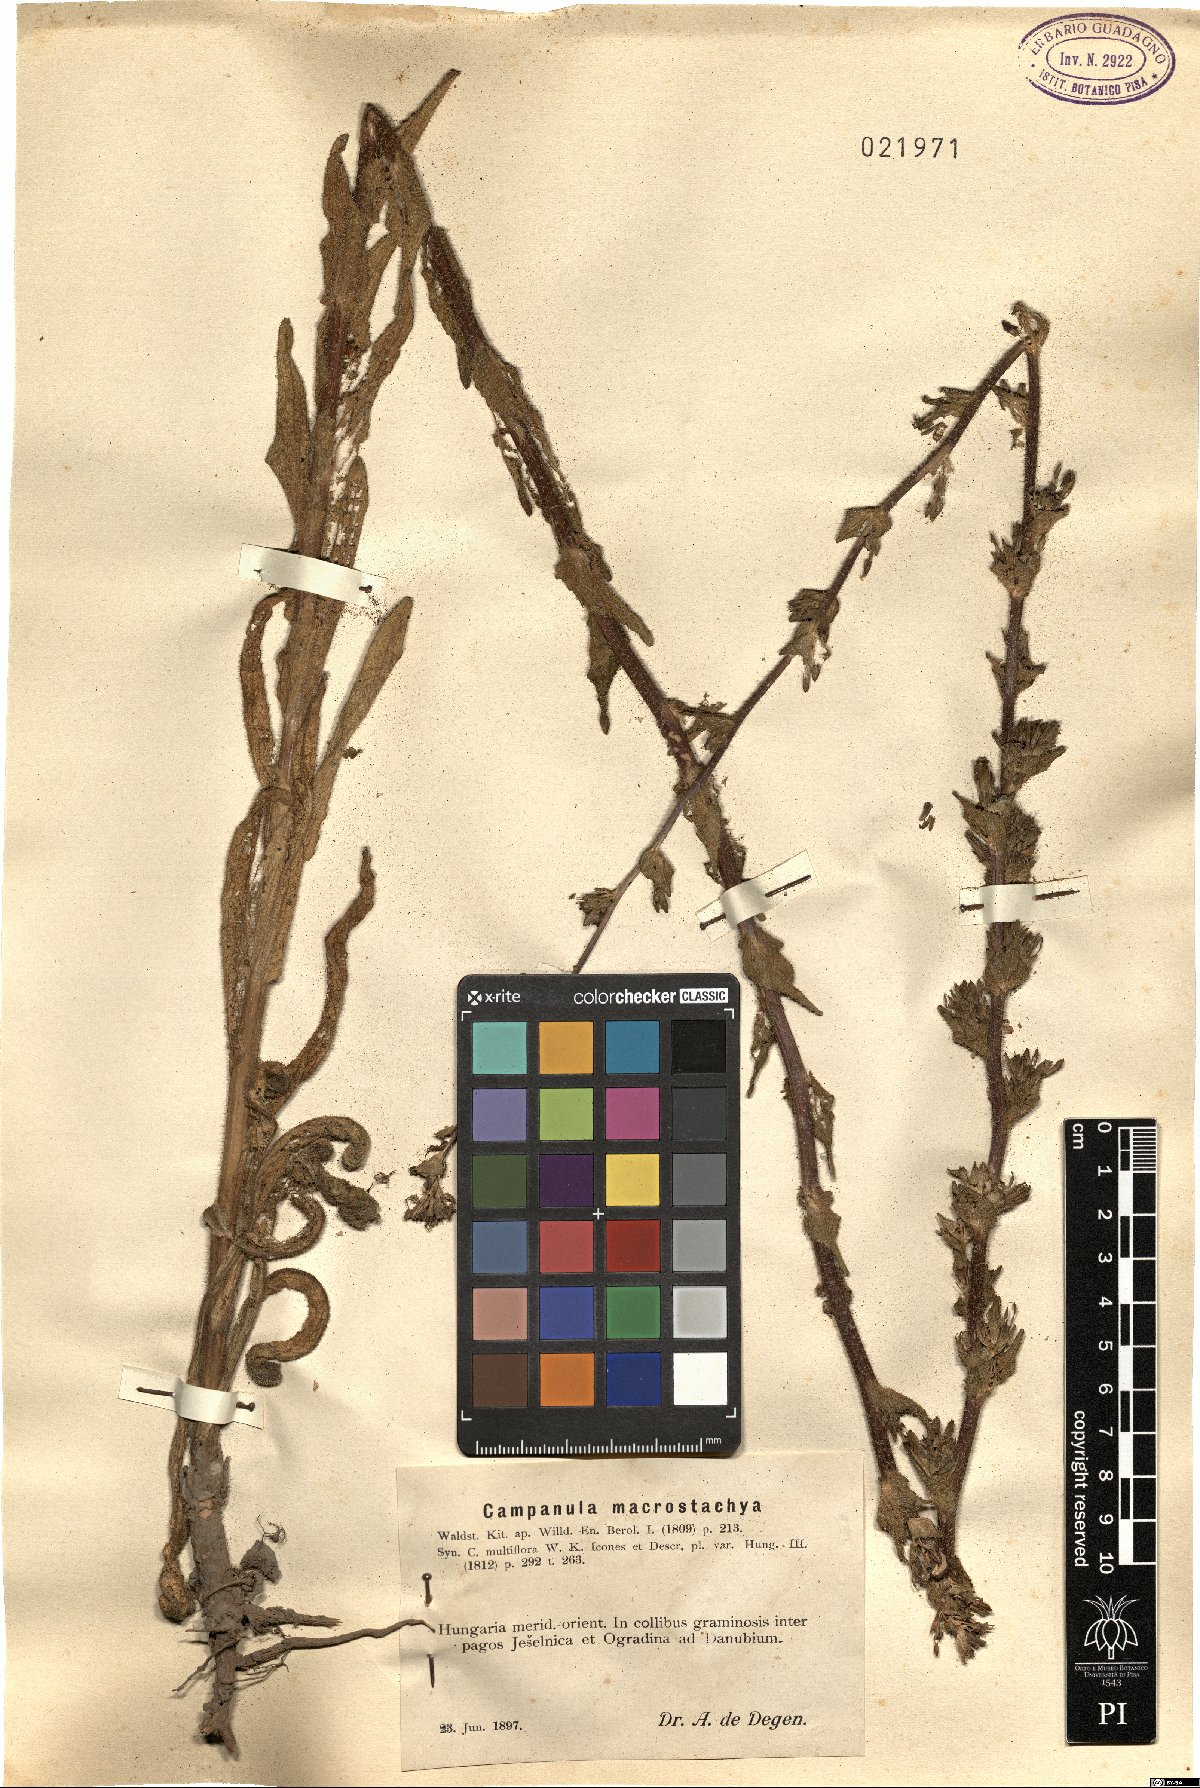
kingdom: Plantae
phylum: Tracheophyta
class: Magnoliopsida
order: Asterales
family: Campanulaceae
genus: Campanula
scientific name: Campanula macrostachya
